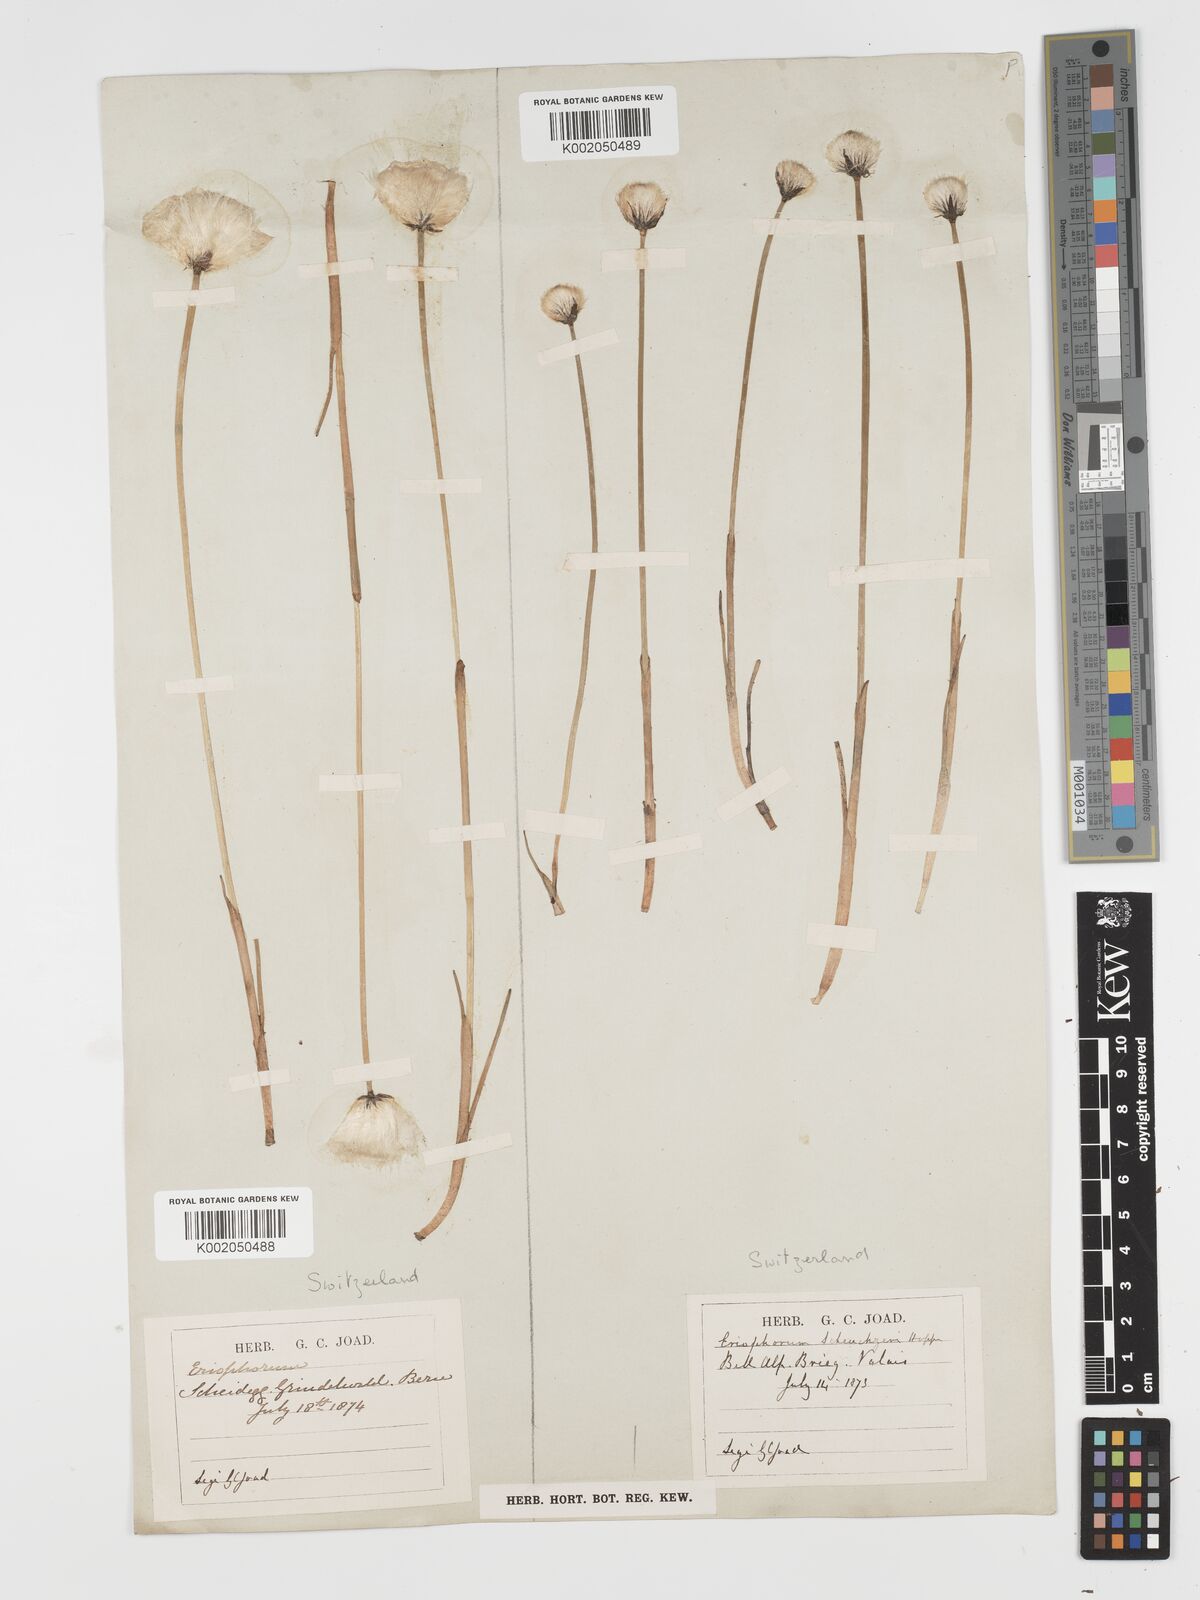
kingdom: Plantae
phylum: Tracheophyta
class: Liliopsida
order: Poales
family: Cyperaceae
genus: Eriophorum
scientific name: Eriophorum scheuchzeri
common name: Scheuchzer's cottongrass
